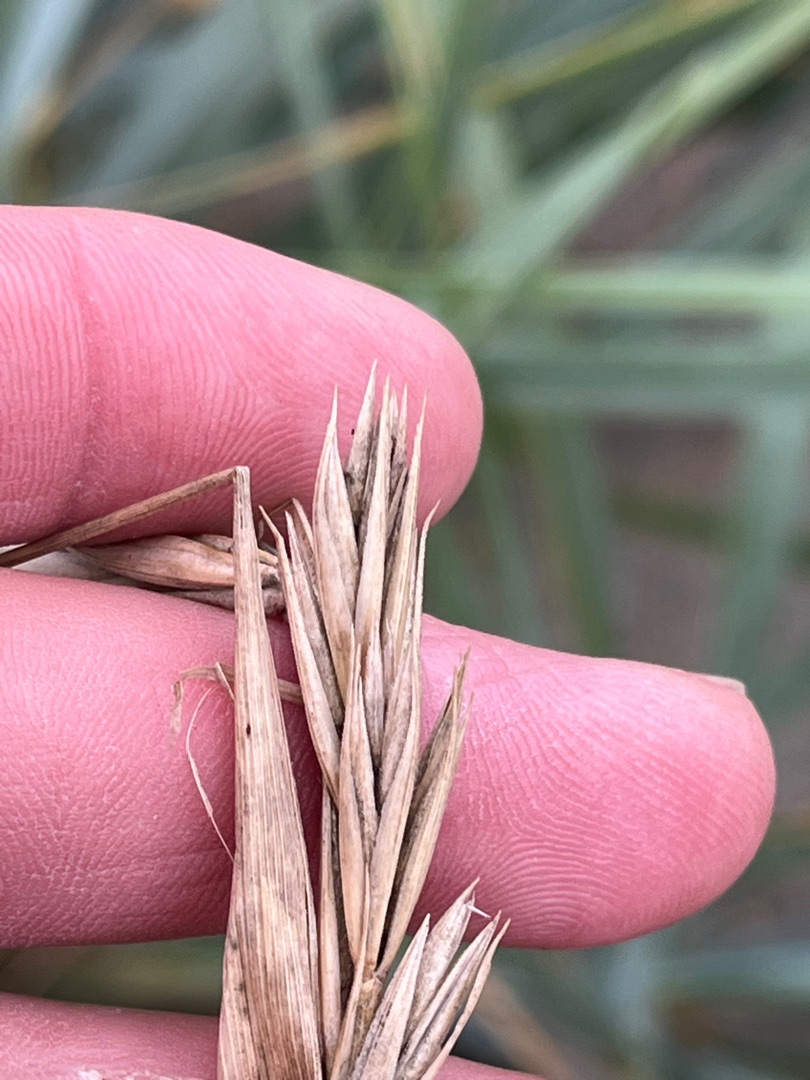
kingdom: Plantae
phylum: Tracheophyta
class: Liliopsida
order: Poales
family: Poaceae
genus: Leymus
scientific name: Leymus arenarius
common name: Marehalm
